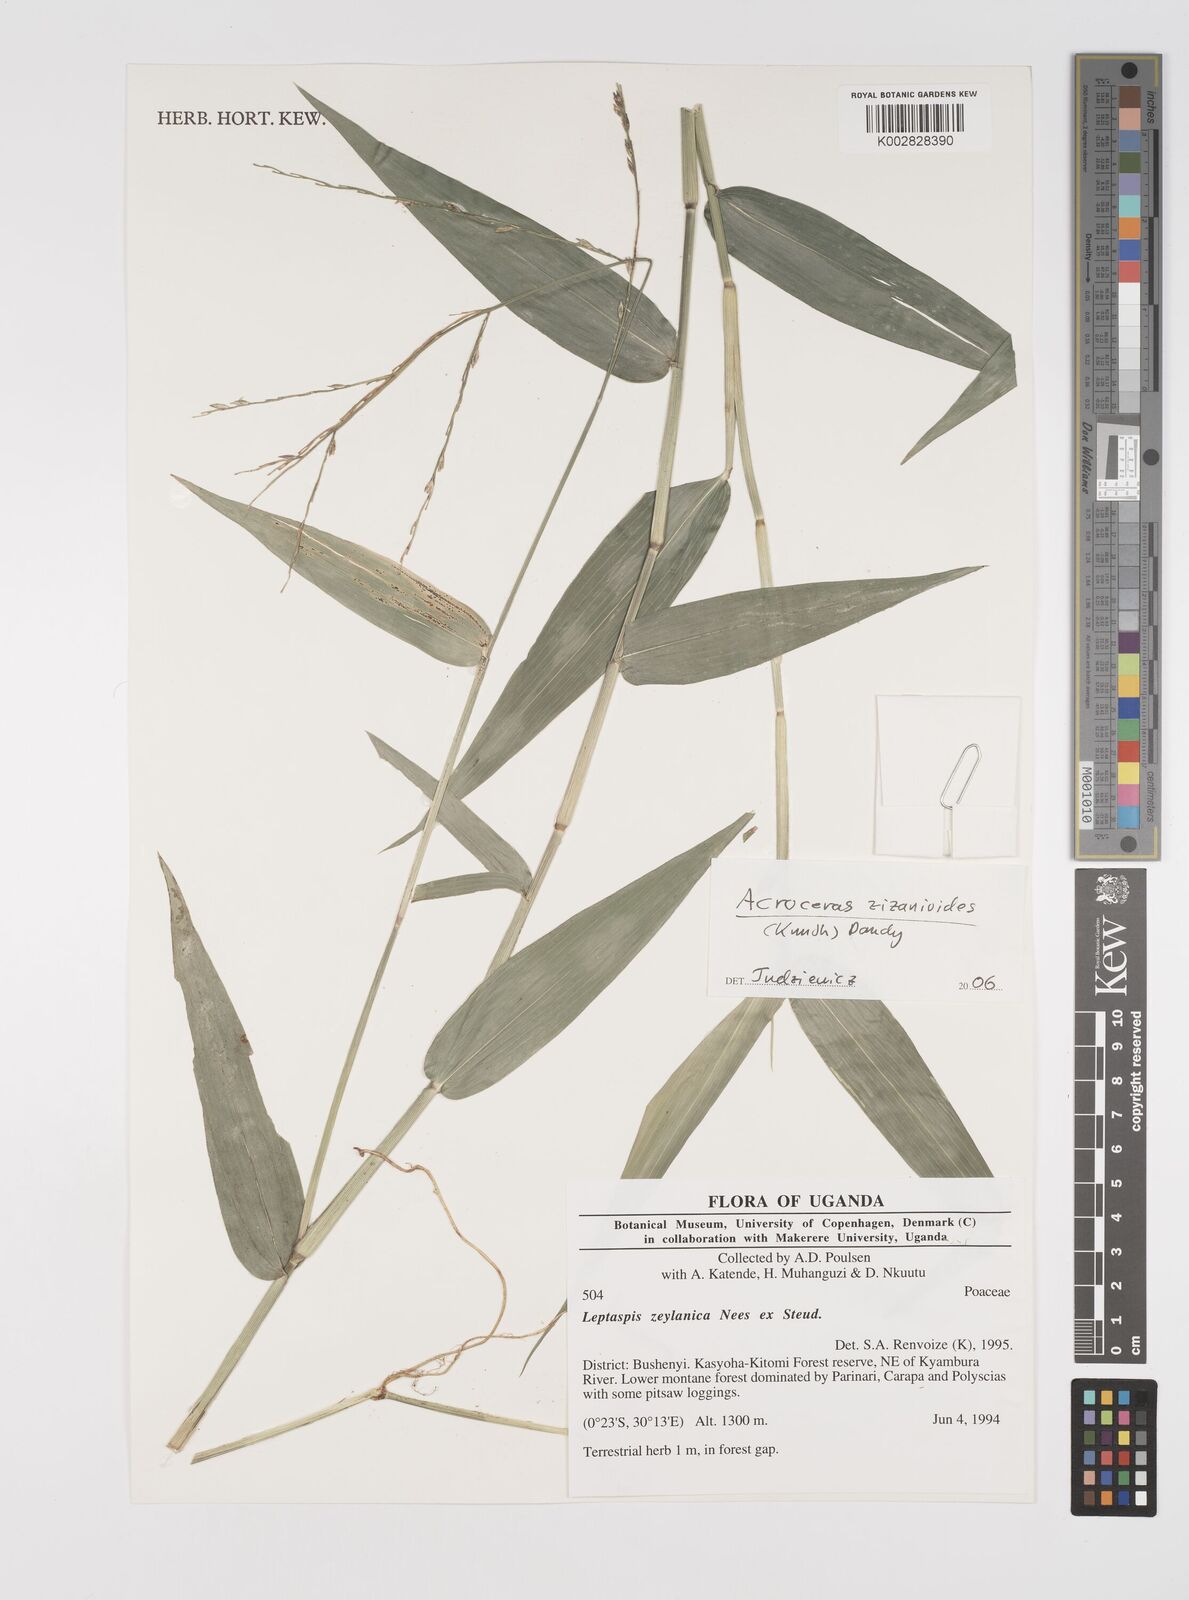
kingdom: Plantae
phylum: Tracheophyta
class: Liliopsida
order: Poales
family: Poaceae
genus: Acroceras
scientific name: Acroceras zizanioides
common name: Oat grass
